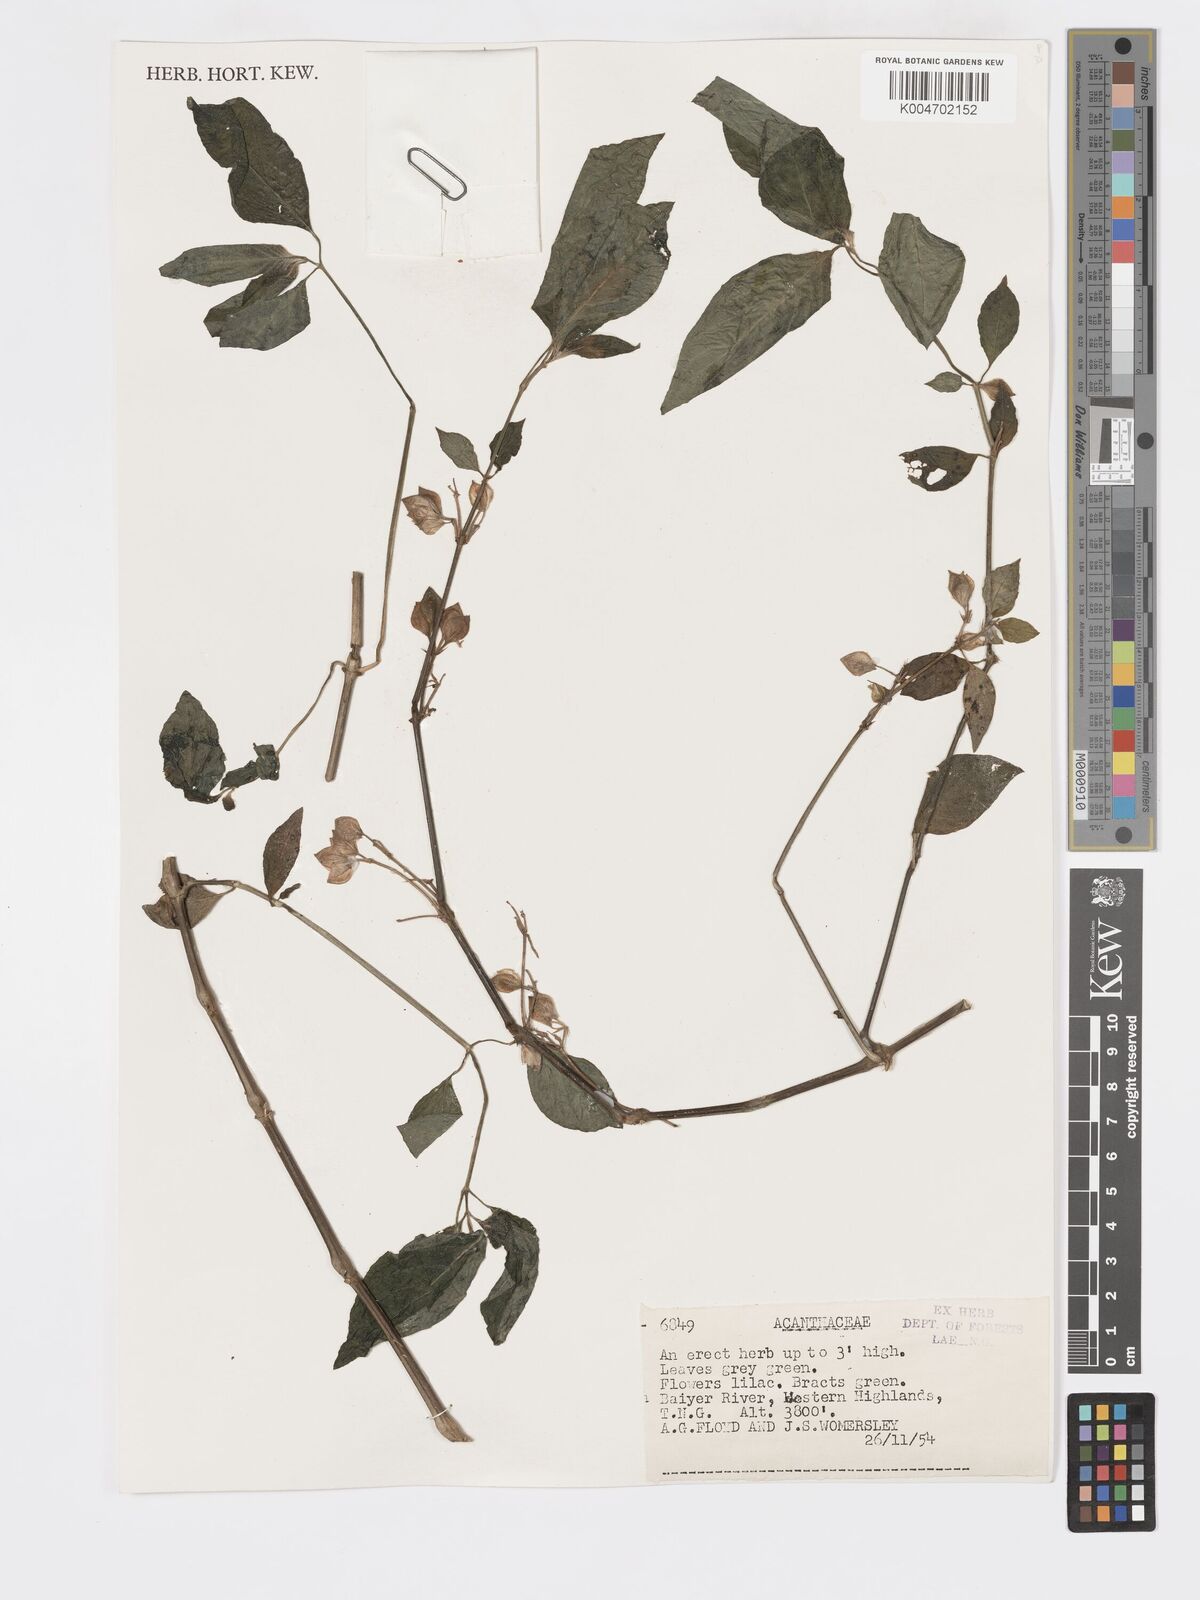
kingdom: Plantae
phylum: Tracheophyta
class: Magnoliopsida
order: Lamiales
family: Acanthaceae
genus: Dicliptera
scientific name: Dicliptera
